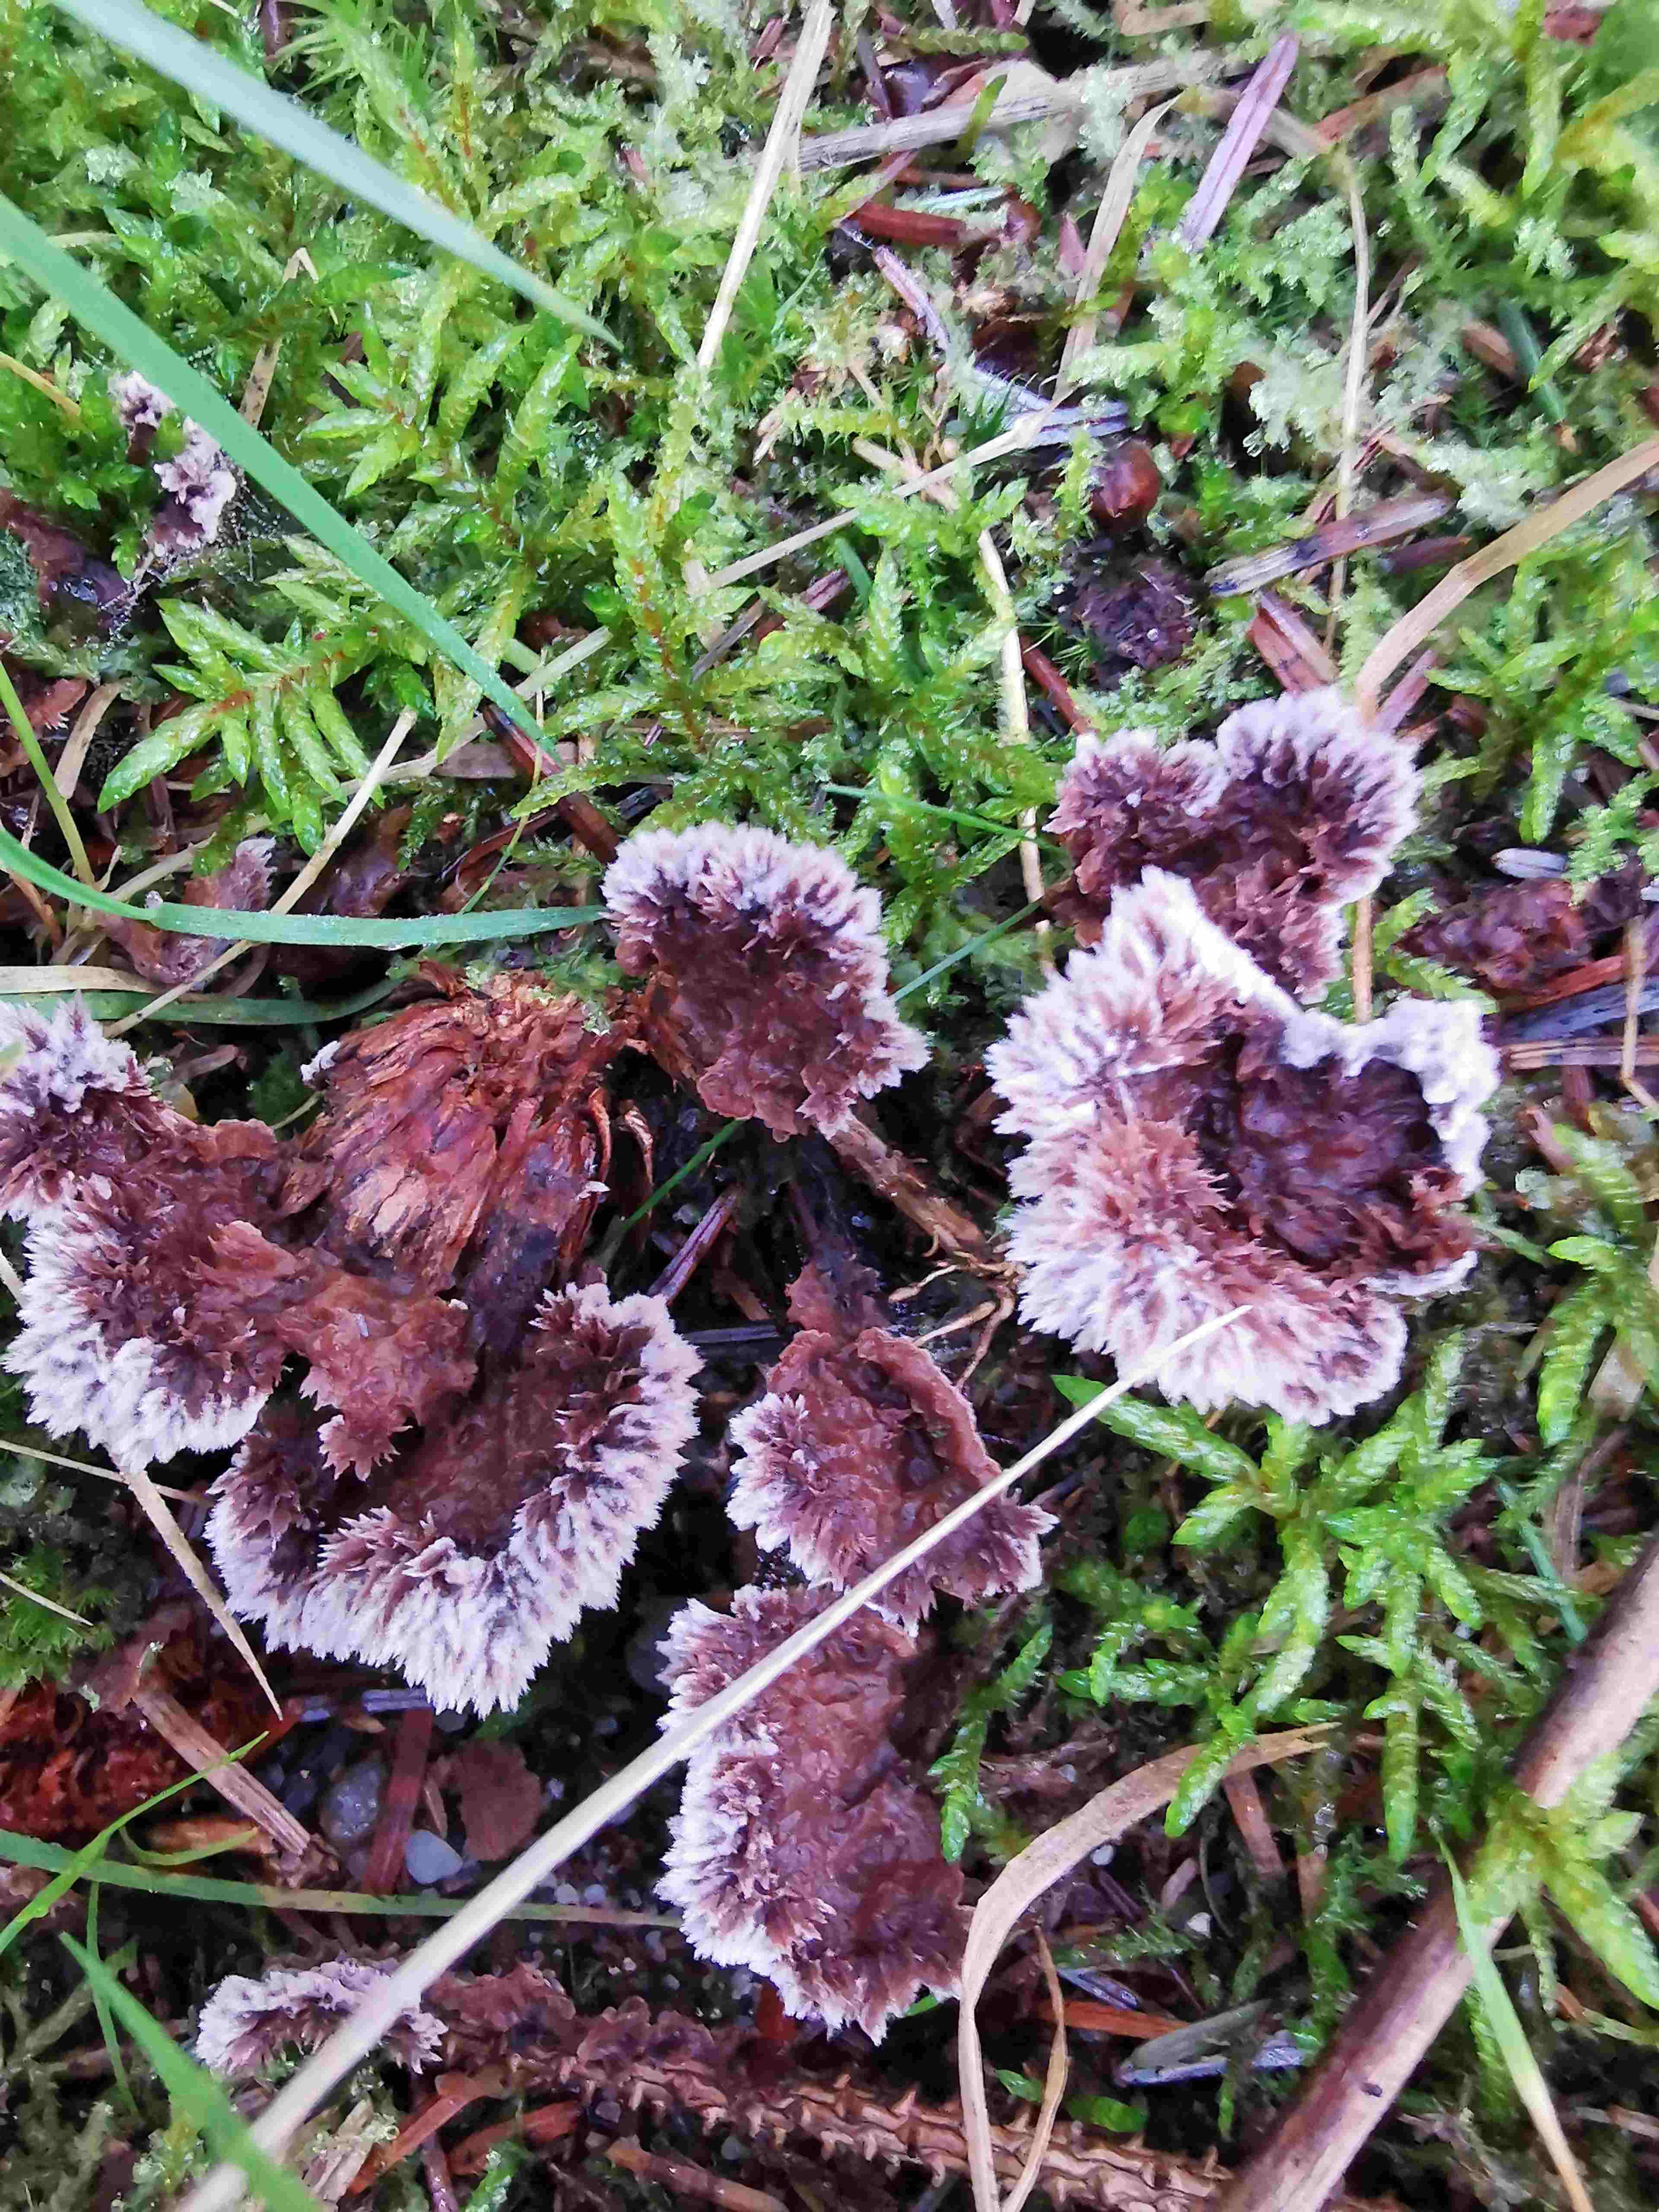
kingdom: Fungi
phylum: Basidiomycota
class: Agaricomycetes
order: Thelephorales
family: Thelephoraceae
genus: Thelephora
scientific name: Thelephora terrestris
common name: fliget frynsesvamp
